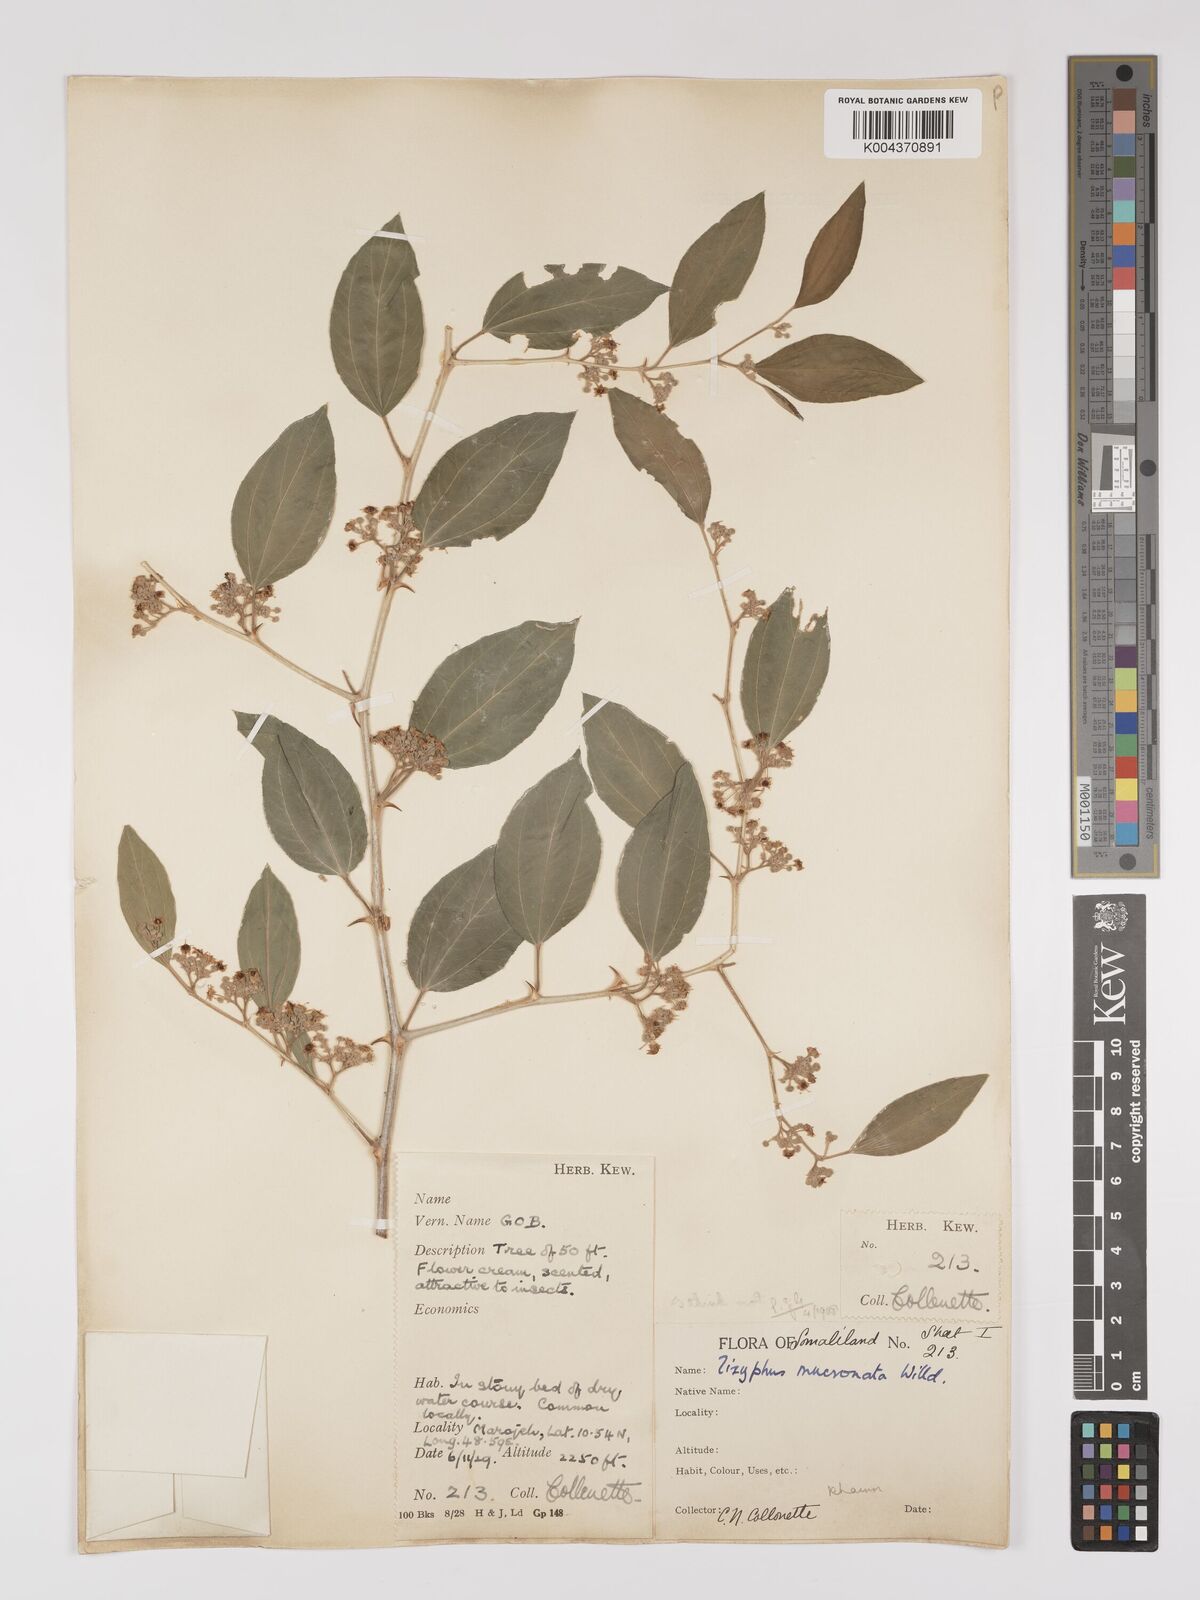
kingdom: Plantae
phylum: Tracheophyta
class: Magnoliopsida
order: Rosales
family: Rhamnaceae
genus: Ziziphus
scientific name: Ziziphus spina-christi
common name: Syrian christ-thorn
